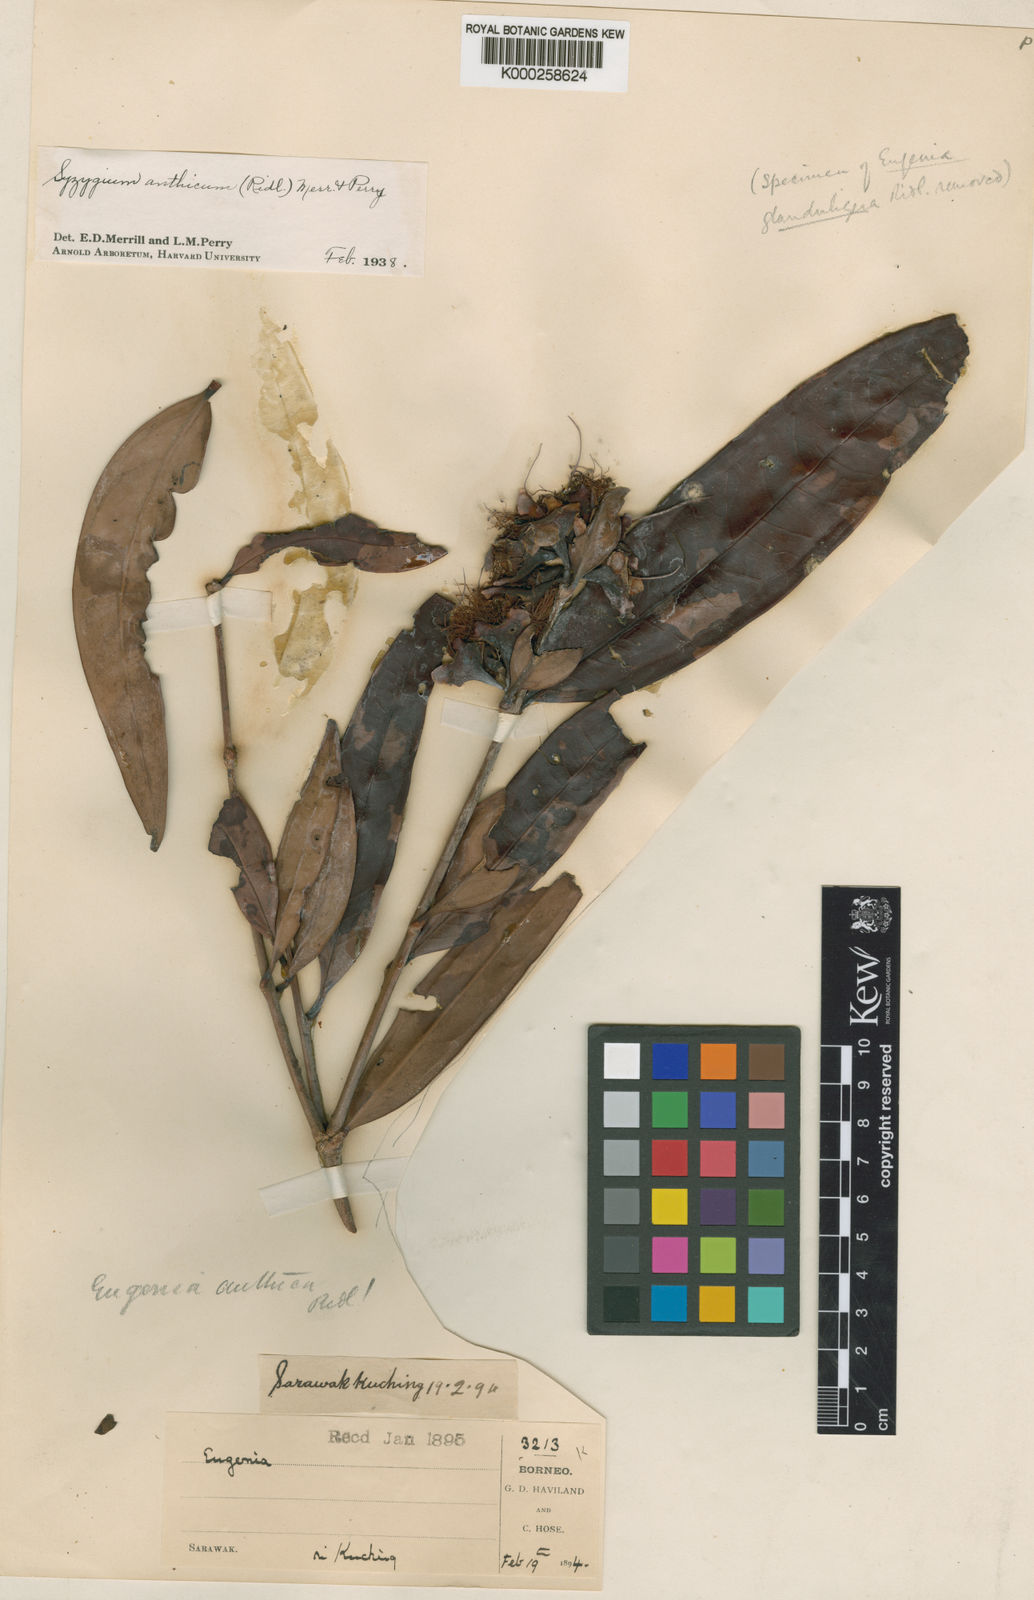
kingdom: Plantae
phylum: Tracheophyta
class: Magnoliopsida
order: Myrtales
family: Myrtaceae
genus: Syzygium
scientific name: Syzygium anthicum
